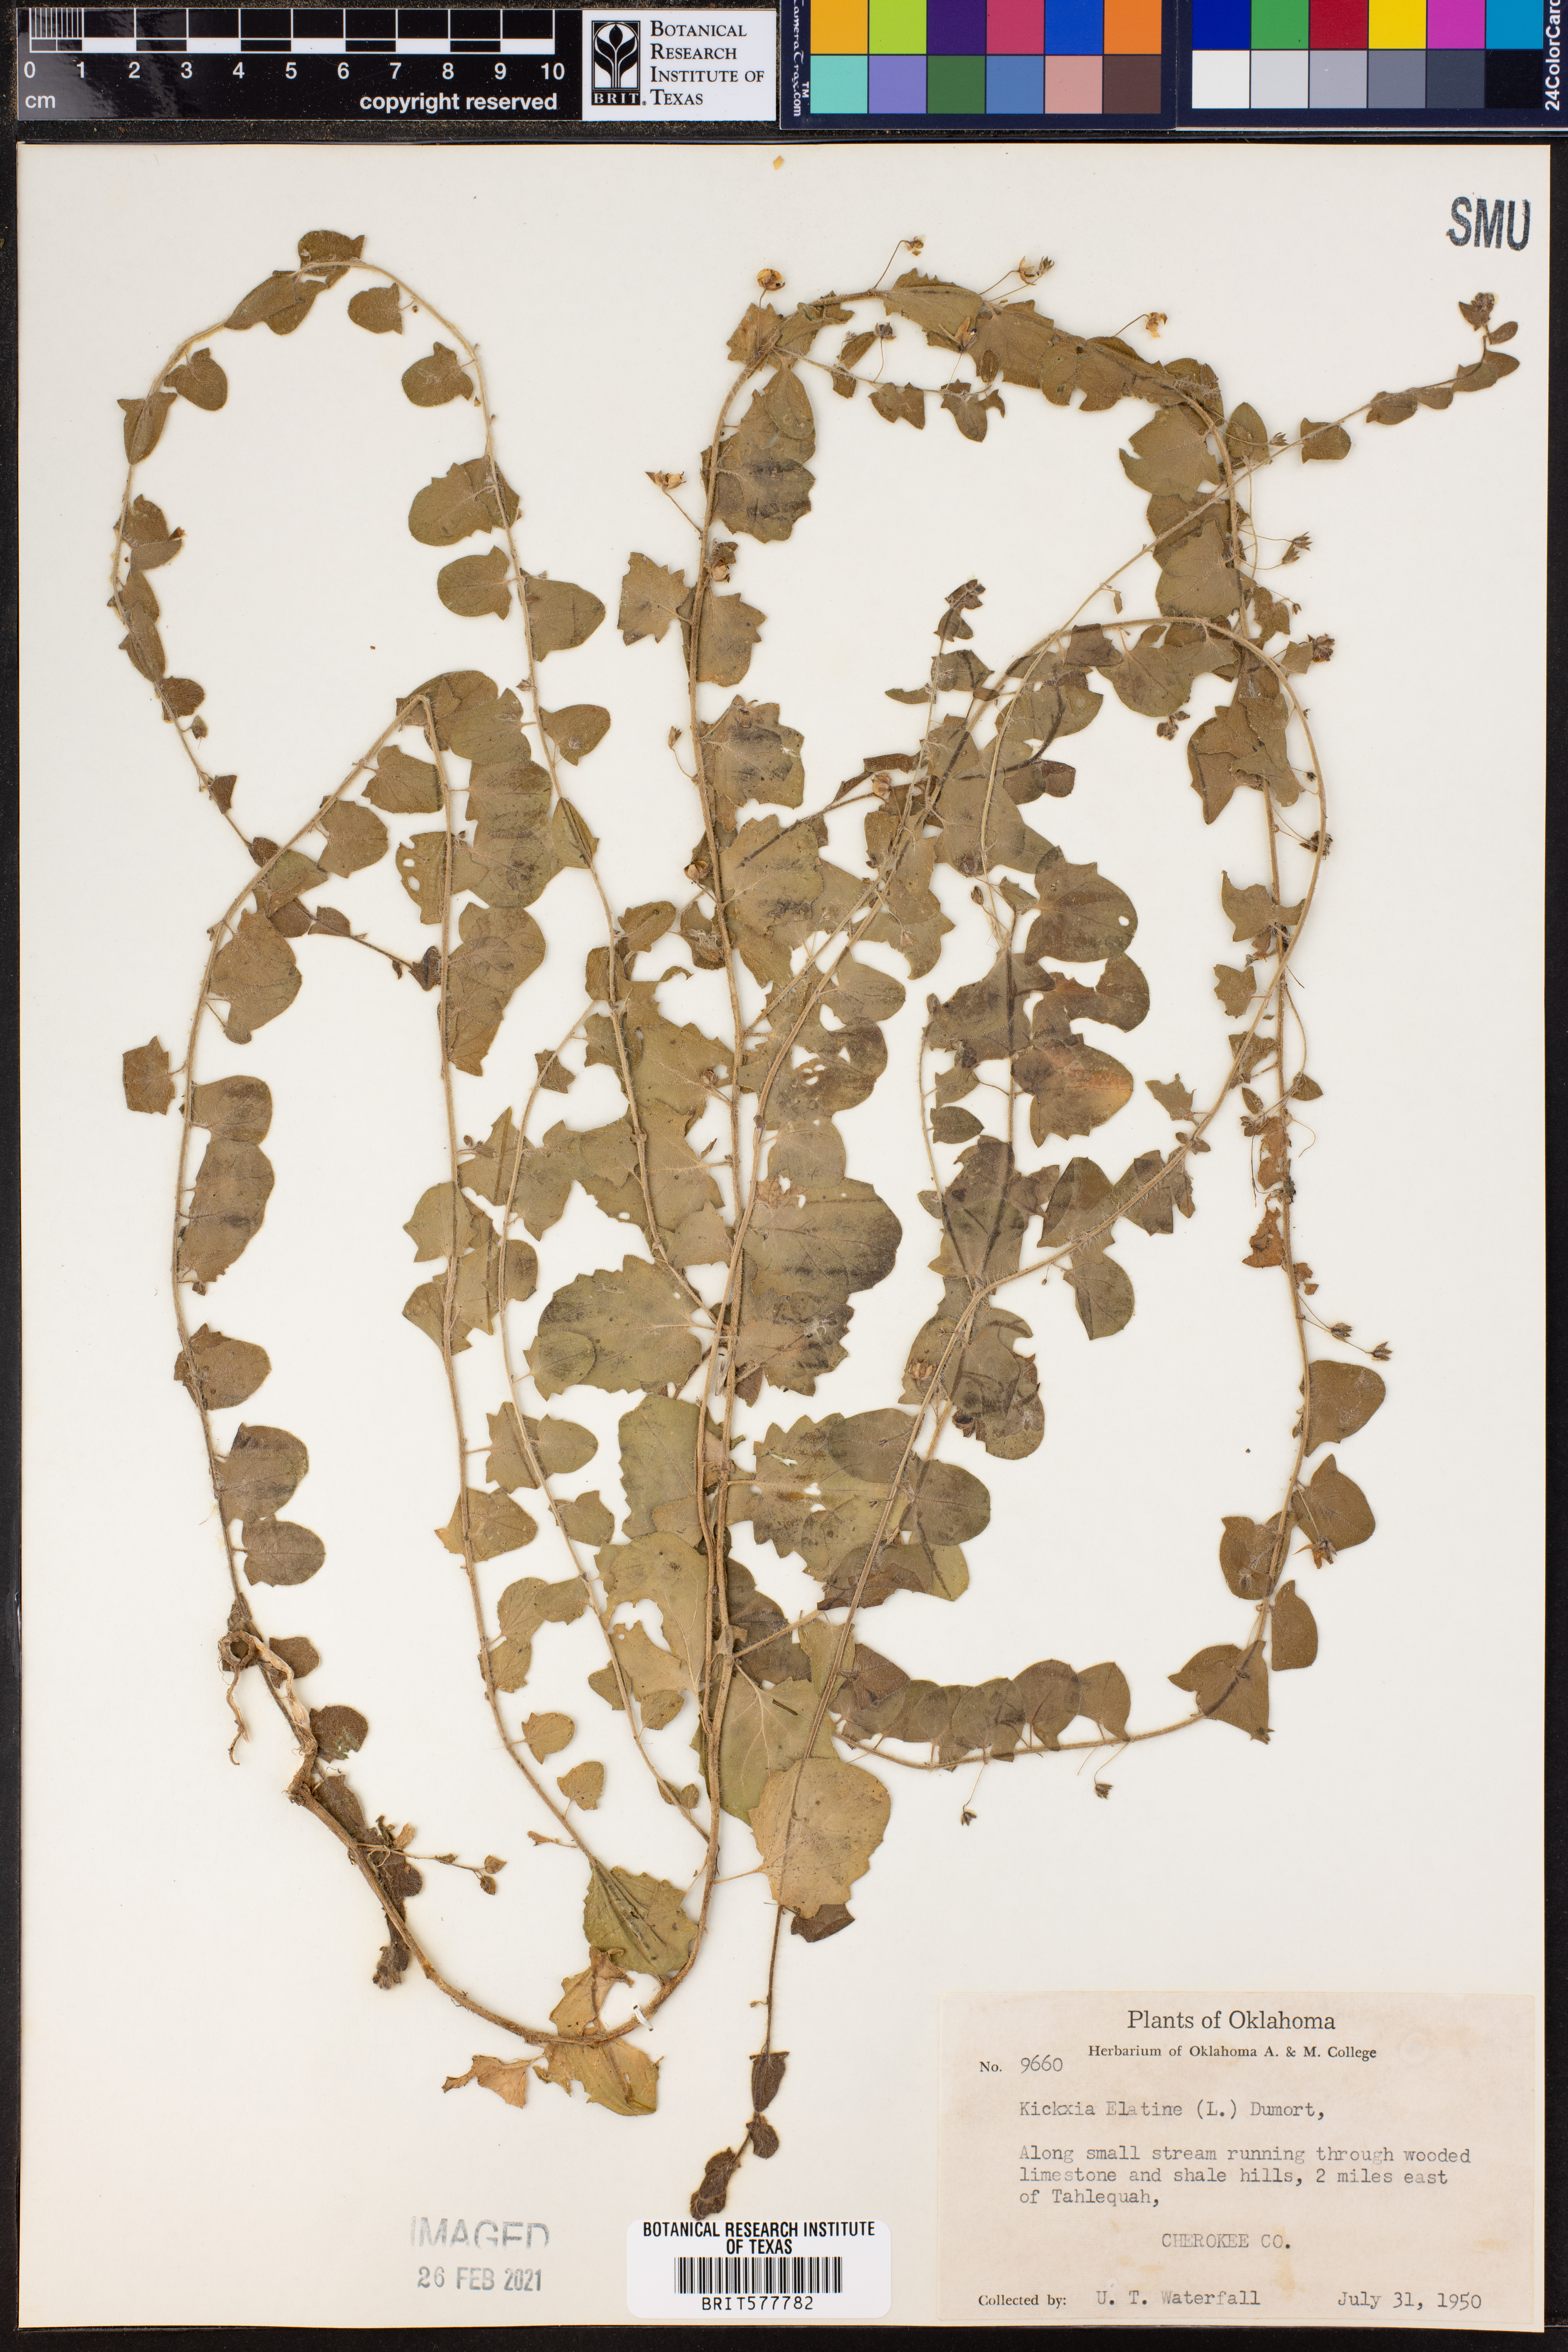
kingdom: Plantae
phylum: Tracheophyta
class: Magnoliopsida
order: Lamiales
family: Plantaginaceae
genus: Kickxia
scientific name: Kickxia elatine
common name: Sharp-leaved fluellen
